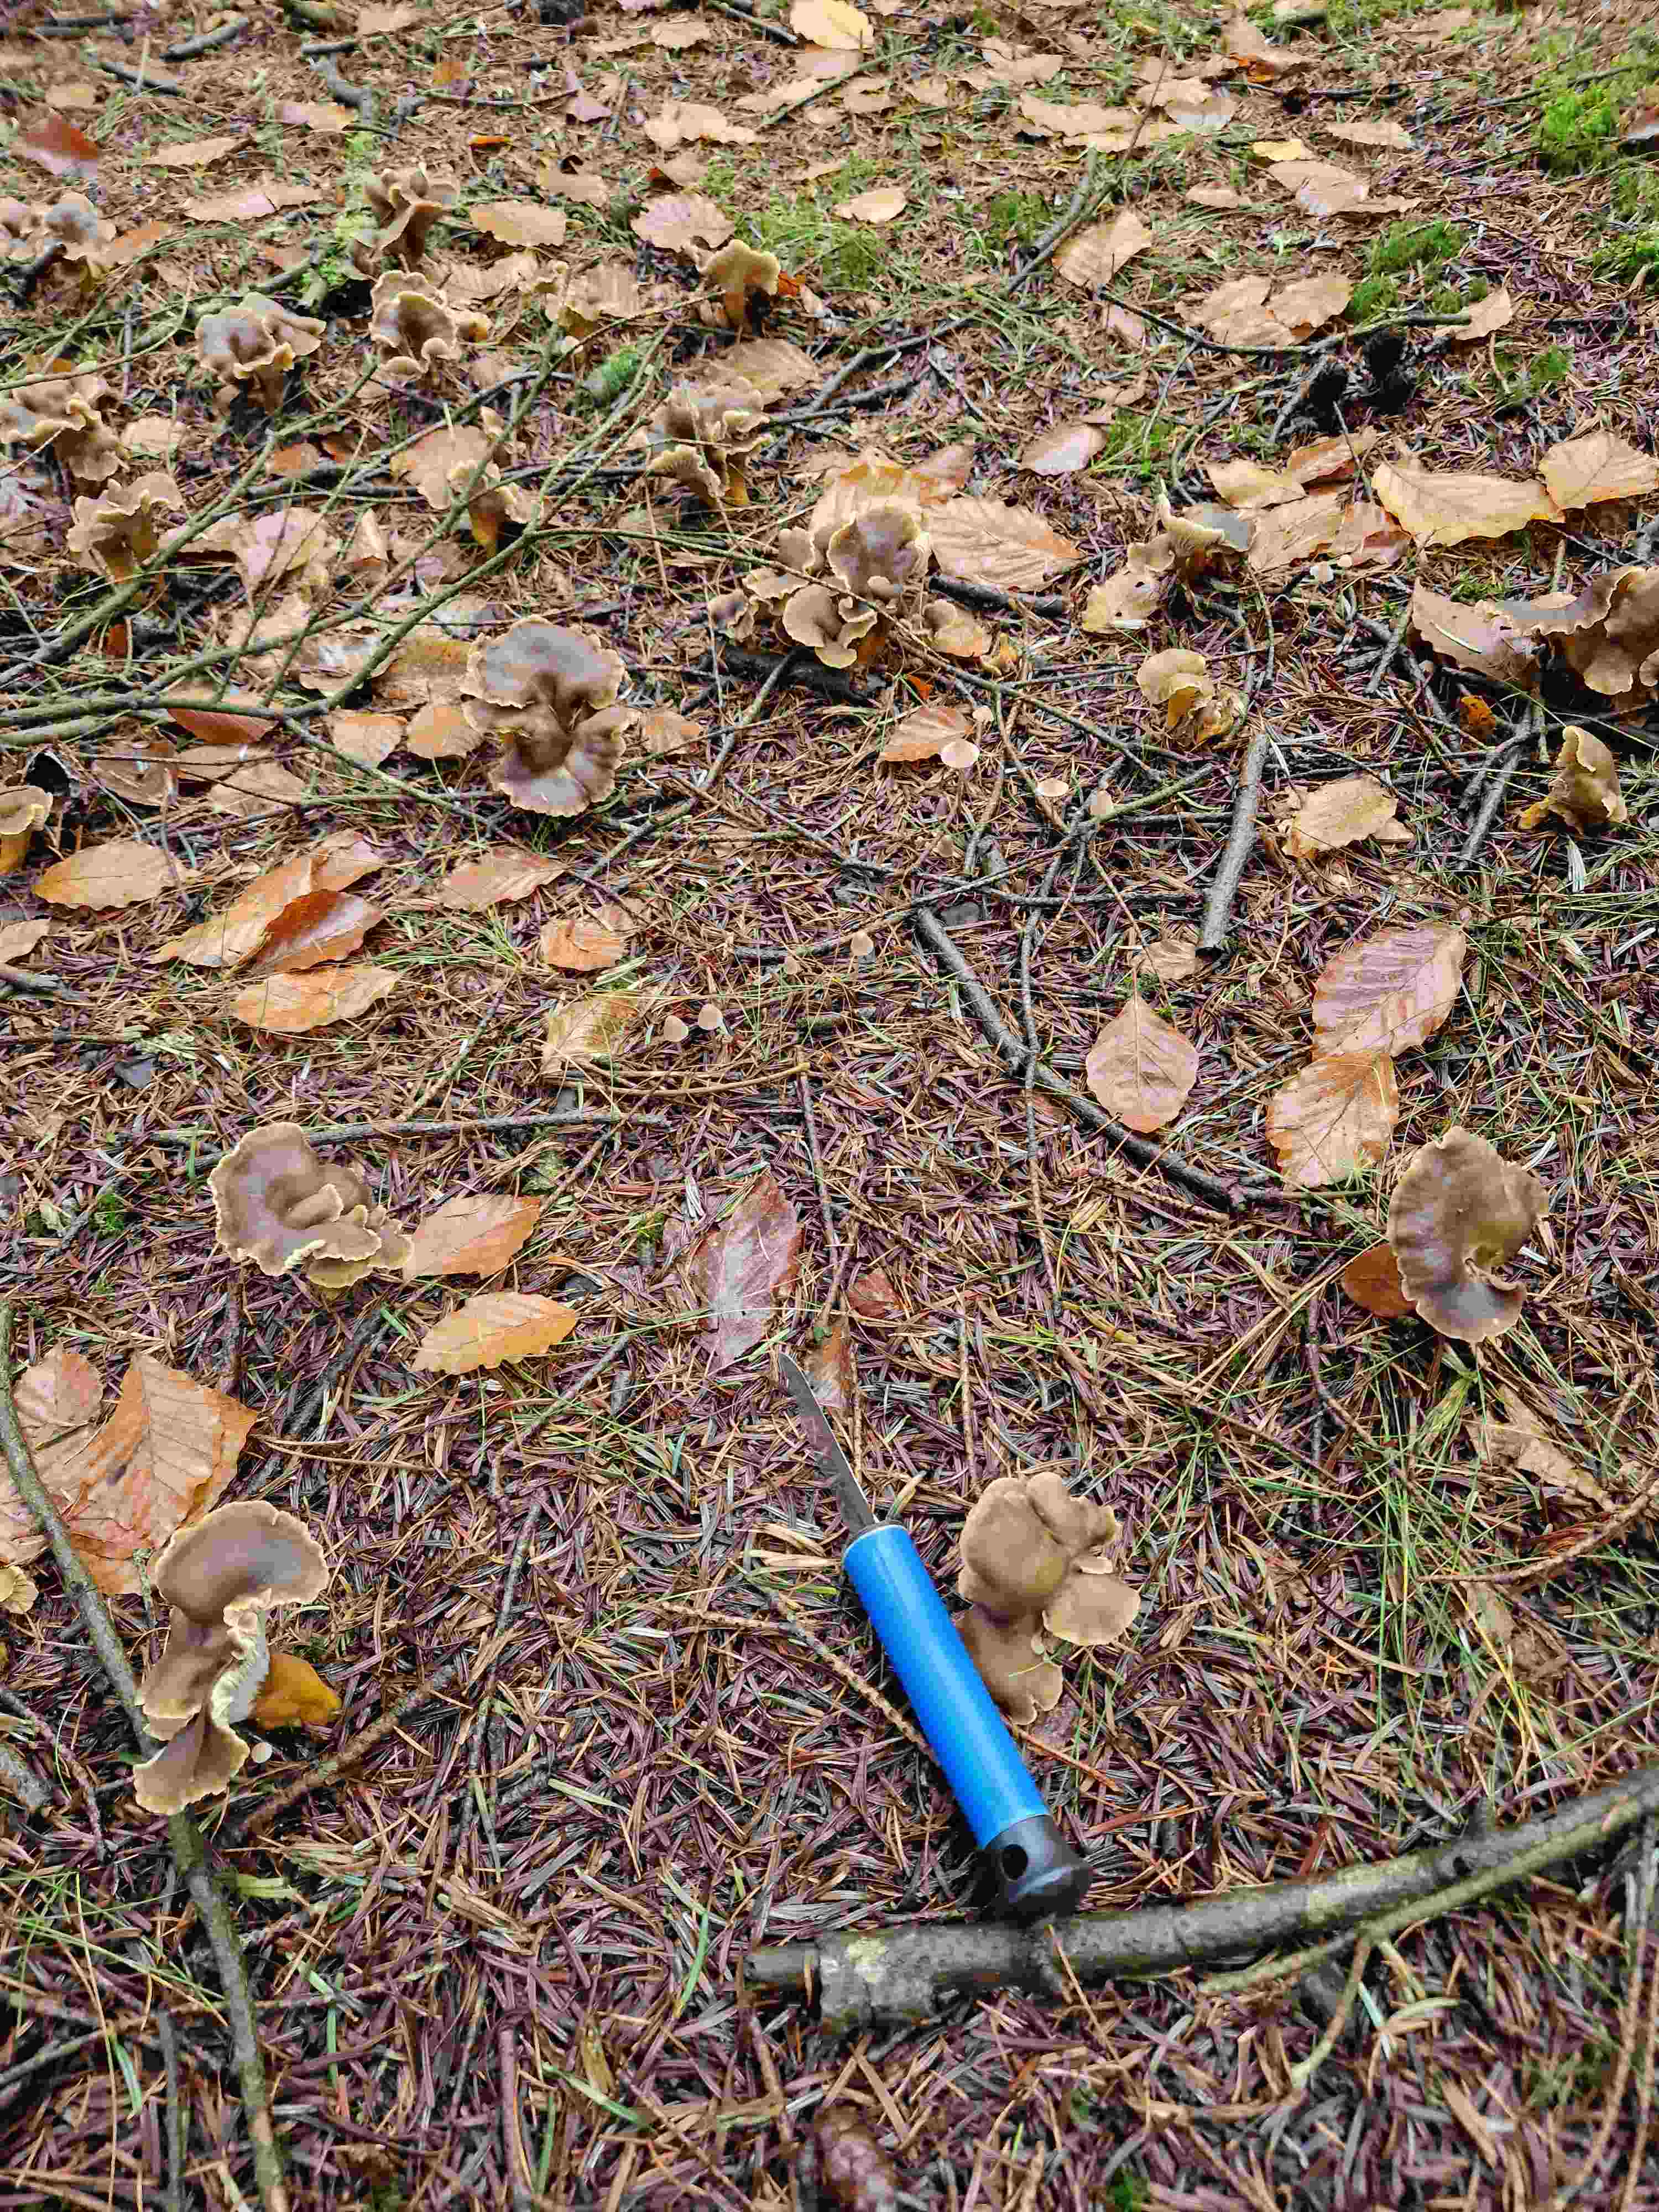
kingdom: Fungi
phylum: Basidiomycota
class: Agaricomycetes
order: Cantharellales
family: Hydnaceae
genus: Craterellus
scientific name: Craterellus tubaeformis
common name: tragt-kantarel
